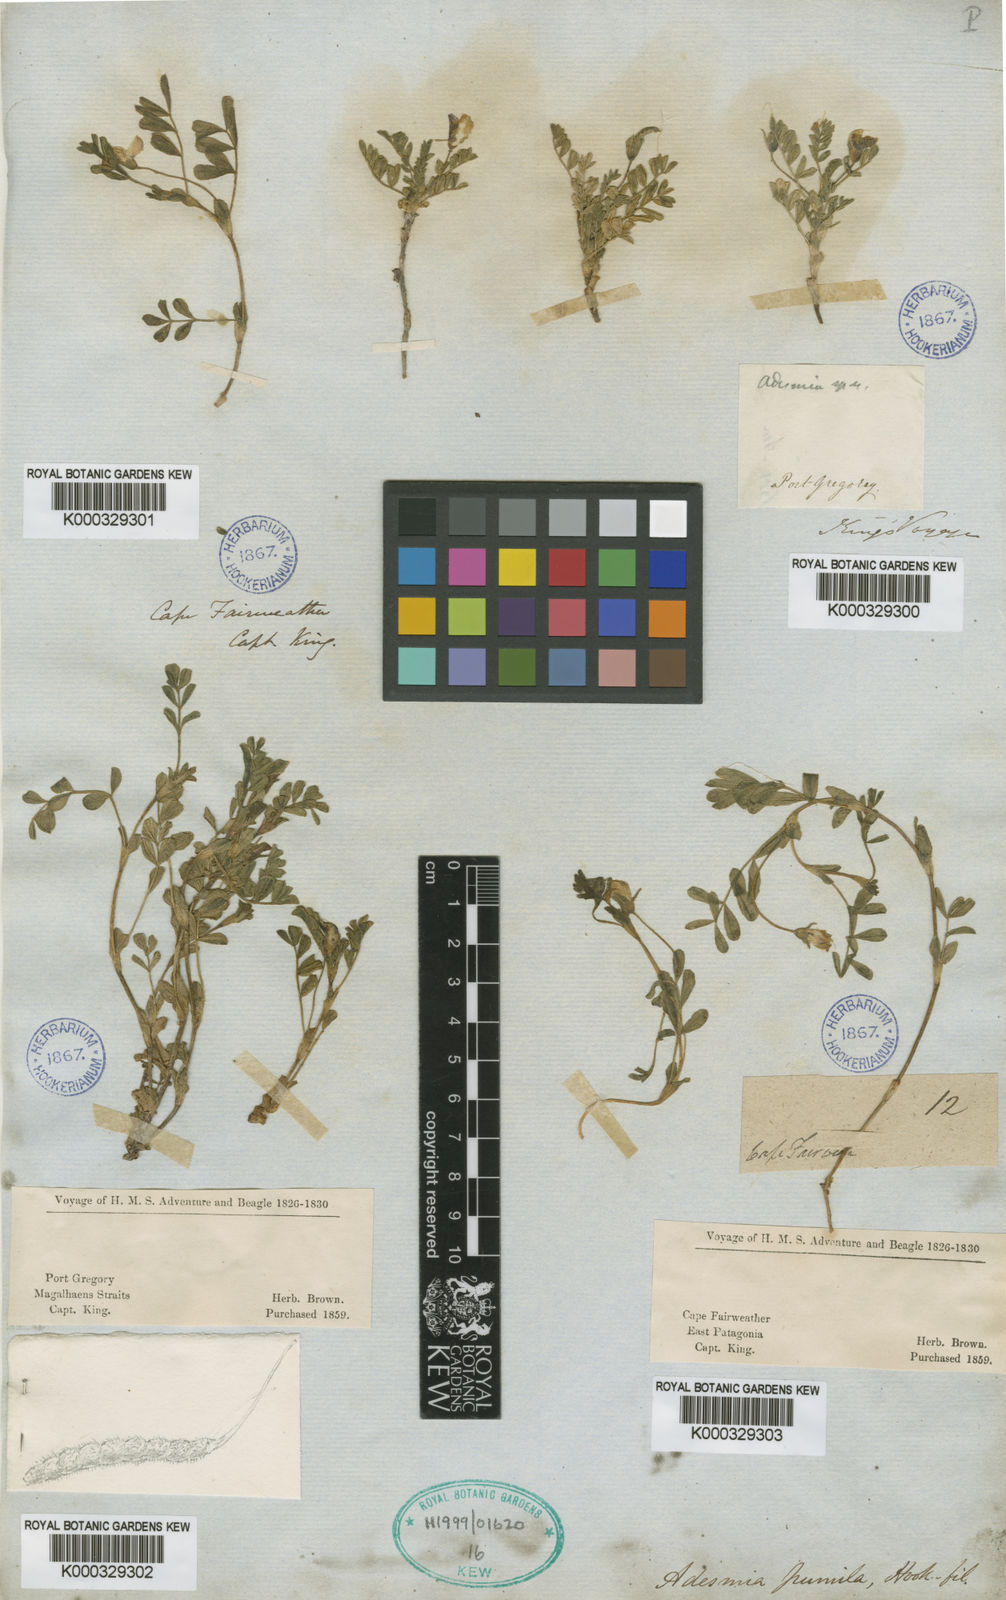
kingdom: Plantae
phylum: Tracheophyta
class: Magnoliopsida
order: Fabales
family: Fabaceae
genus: Adesmia
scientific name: Adesmia pumila
